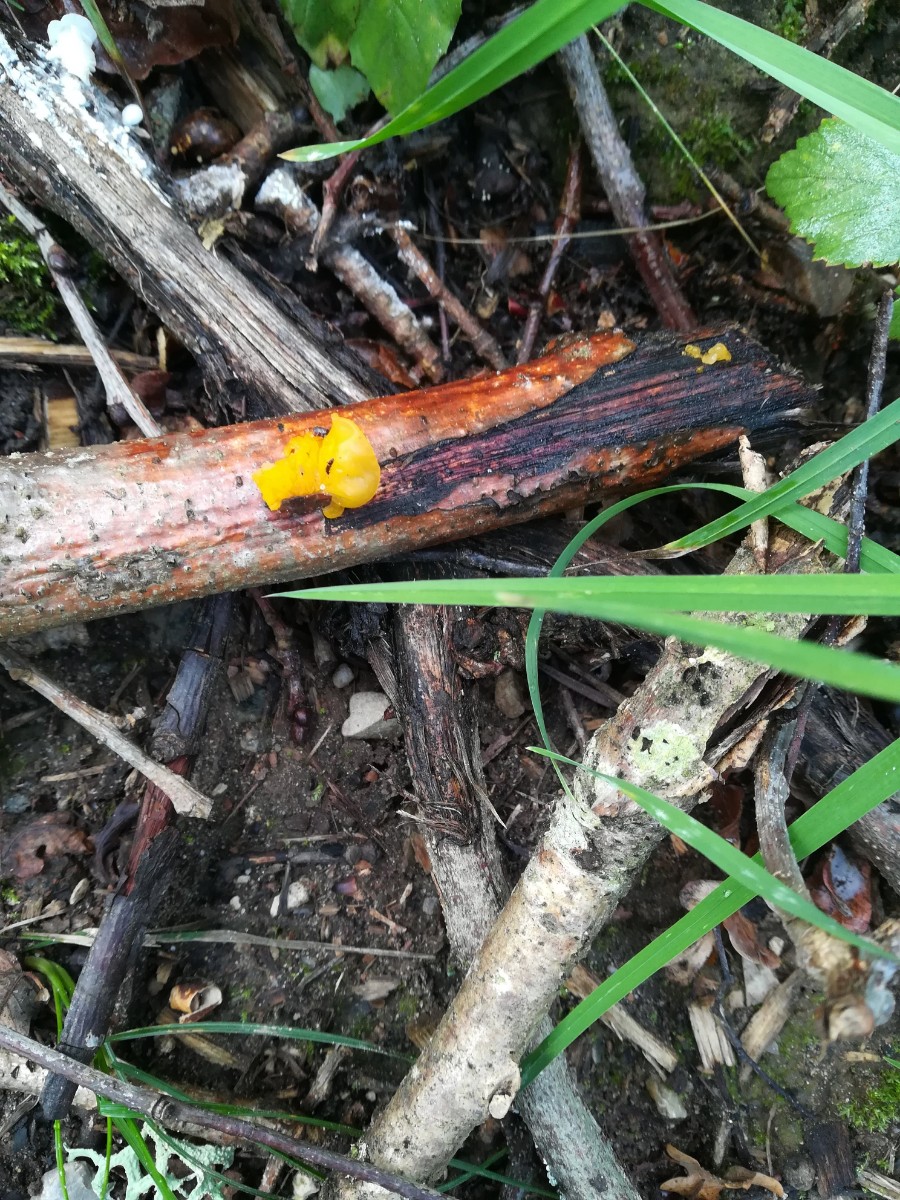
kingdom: Fungi
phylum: Basidiomycota
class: Tremellomycetes
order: Tremellales
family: Tremellaceae
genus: Tremella
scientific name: Tremella mesenterica
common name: gul bævresvamp
